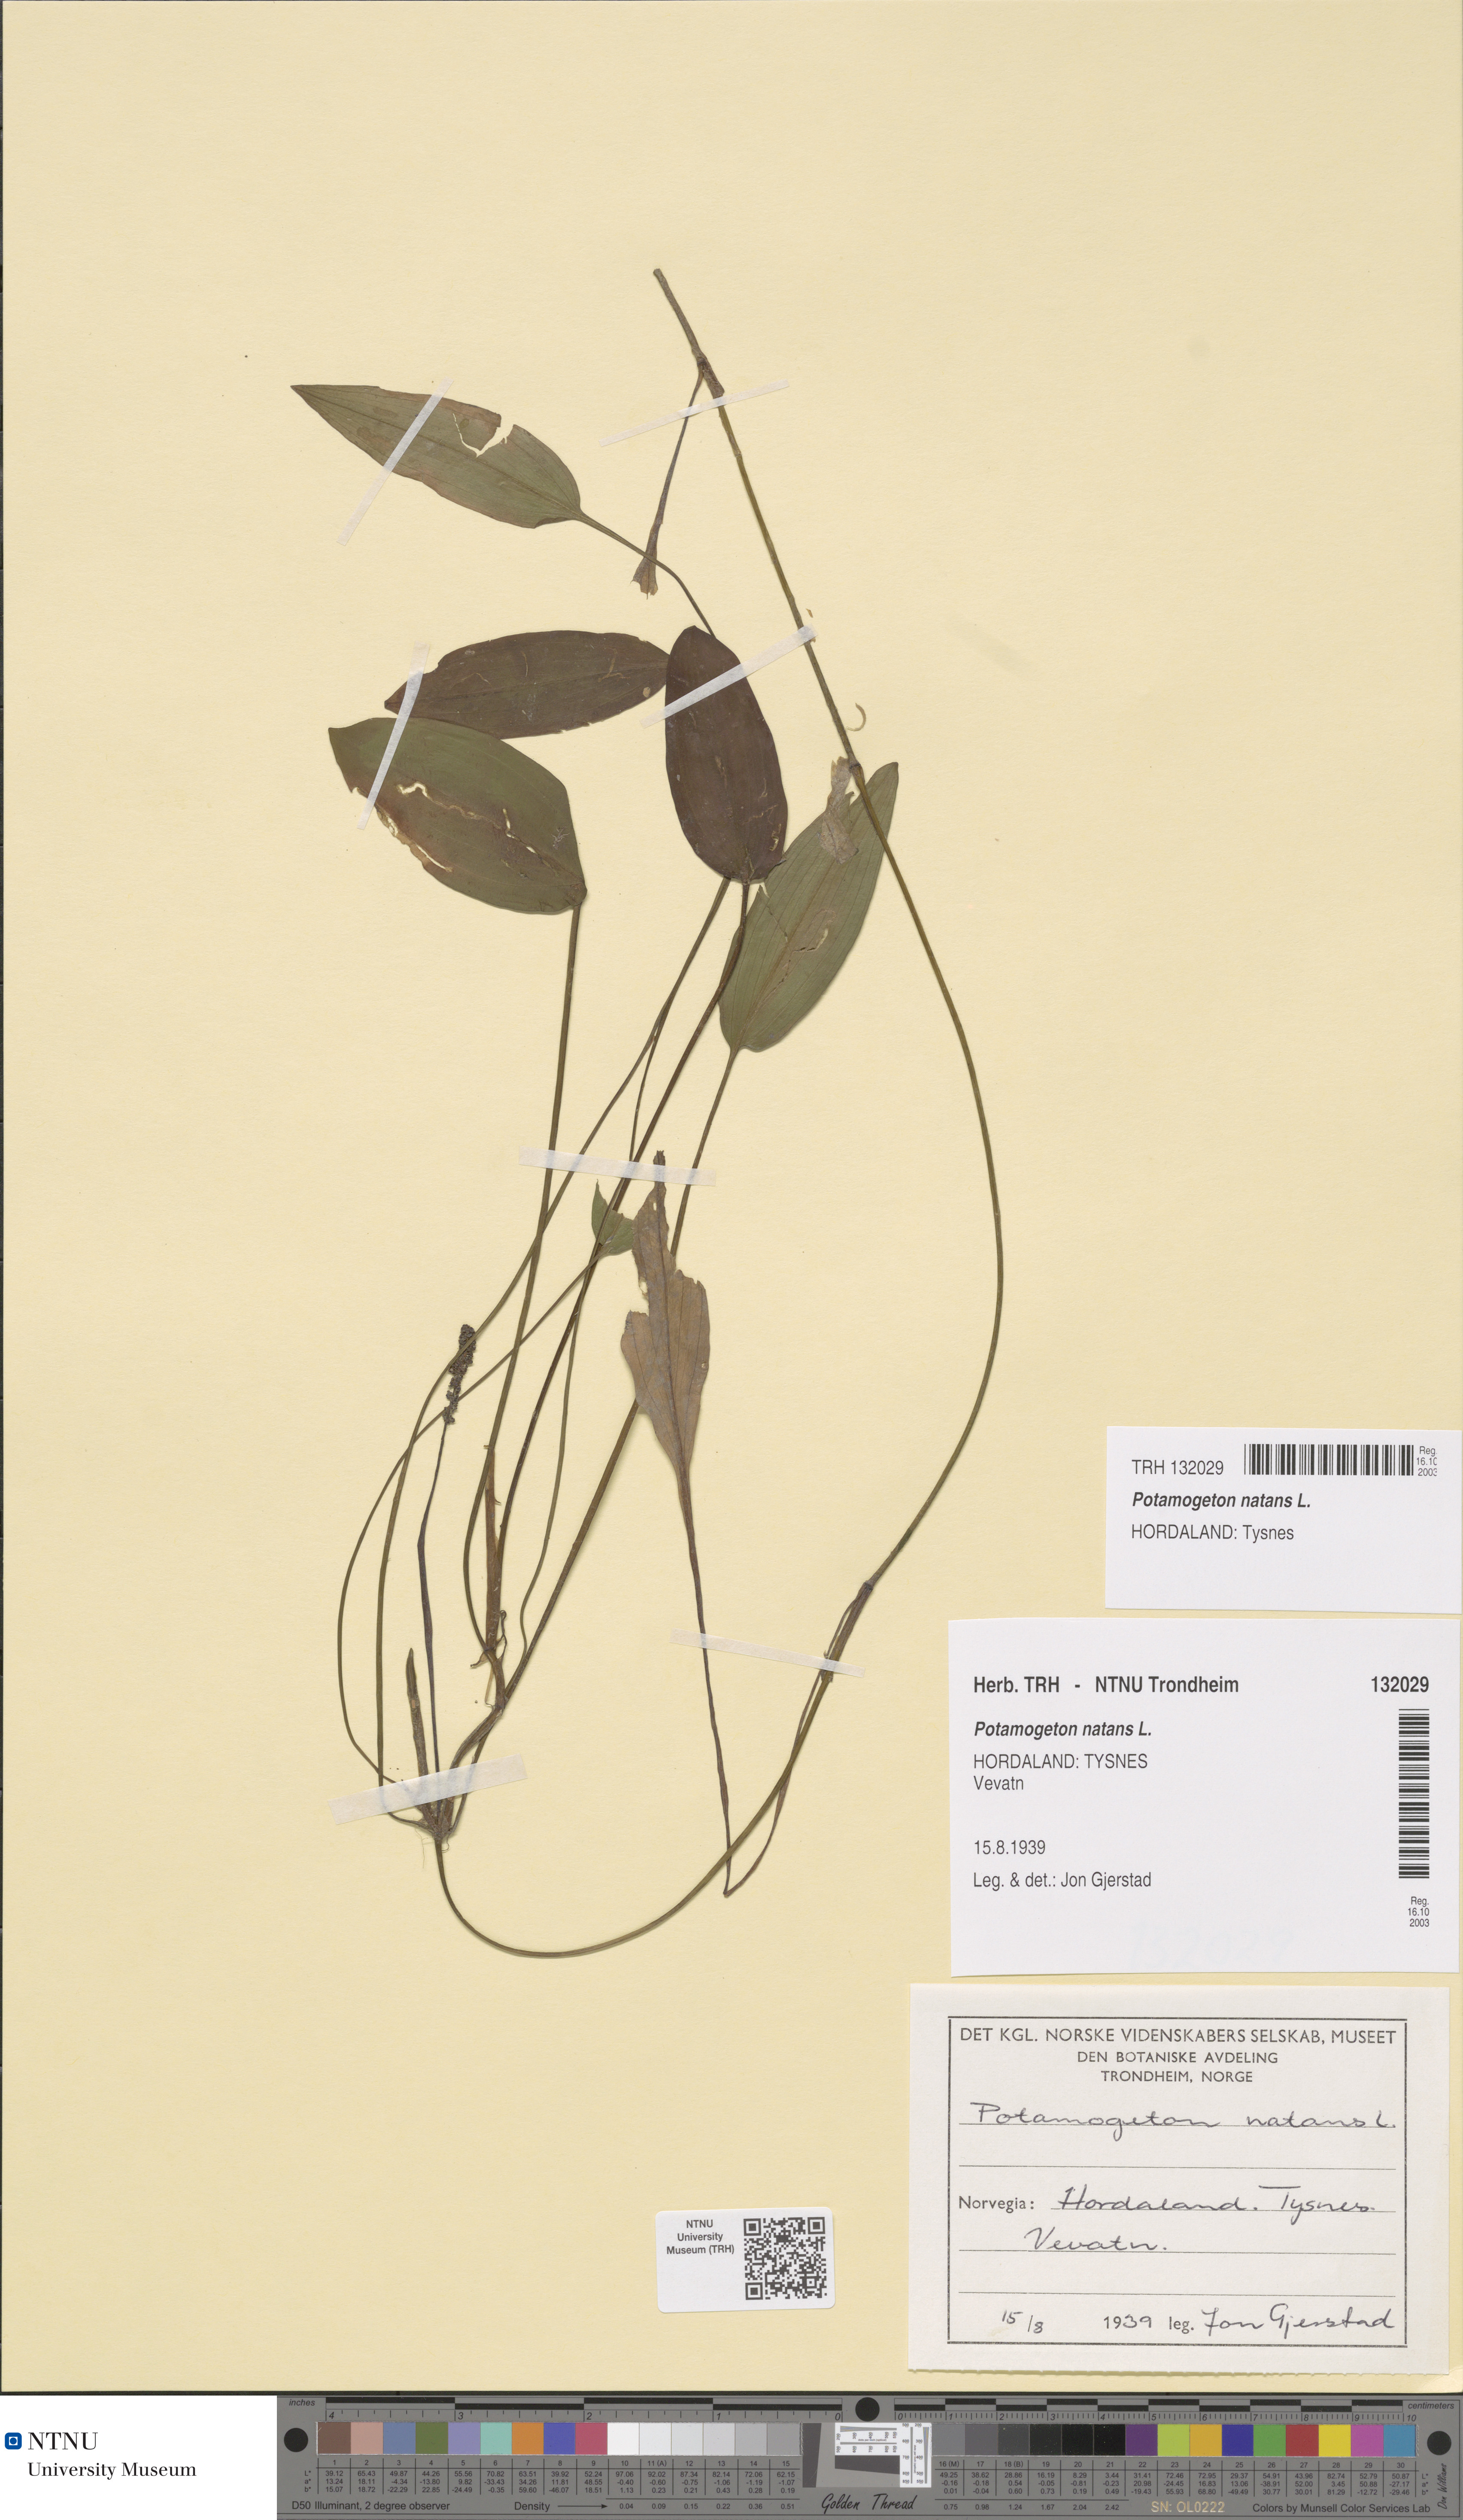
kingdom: Plantae
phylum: Tracheophyta
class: Liliopsida
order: Alismatales
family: Potamogetonaceae
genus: Potamogeton
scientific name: Potamogeton polygonifolius
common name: Bog pondweed
